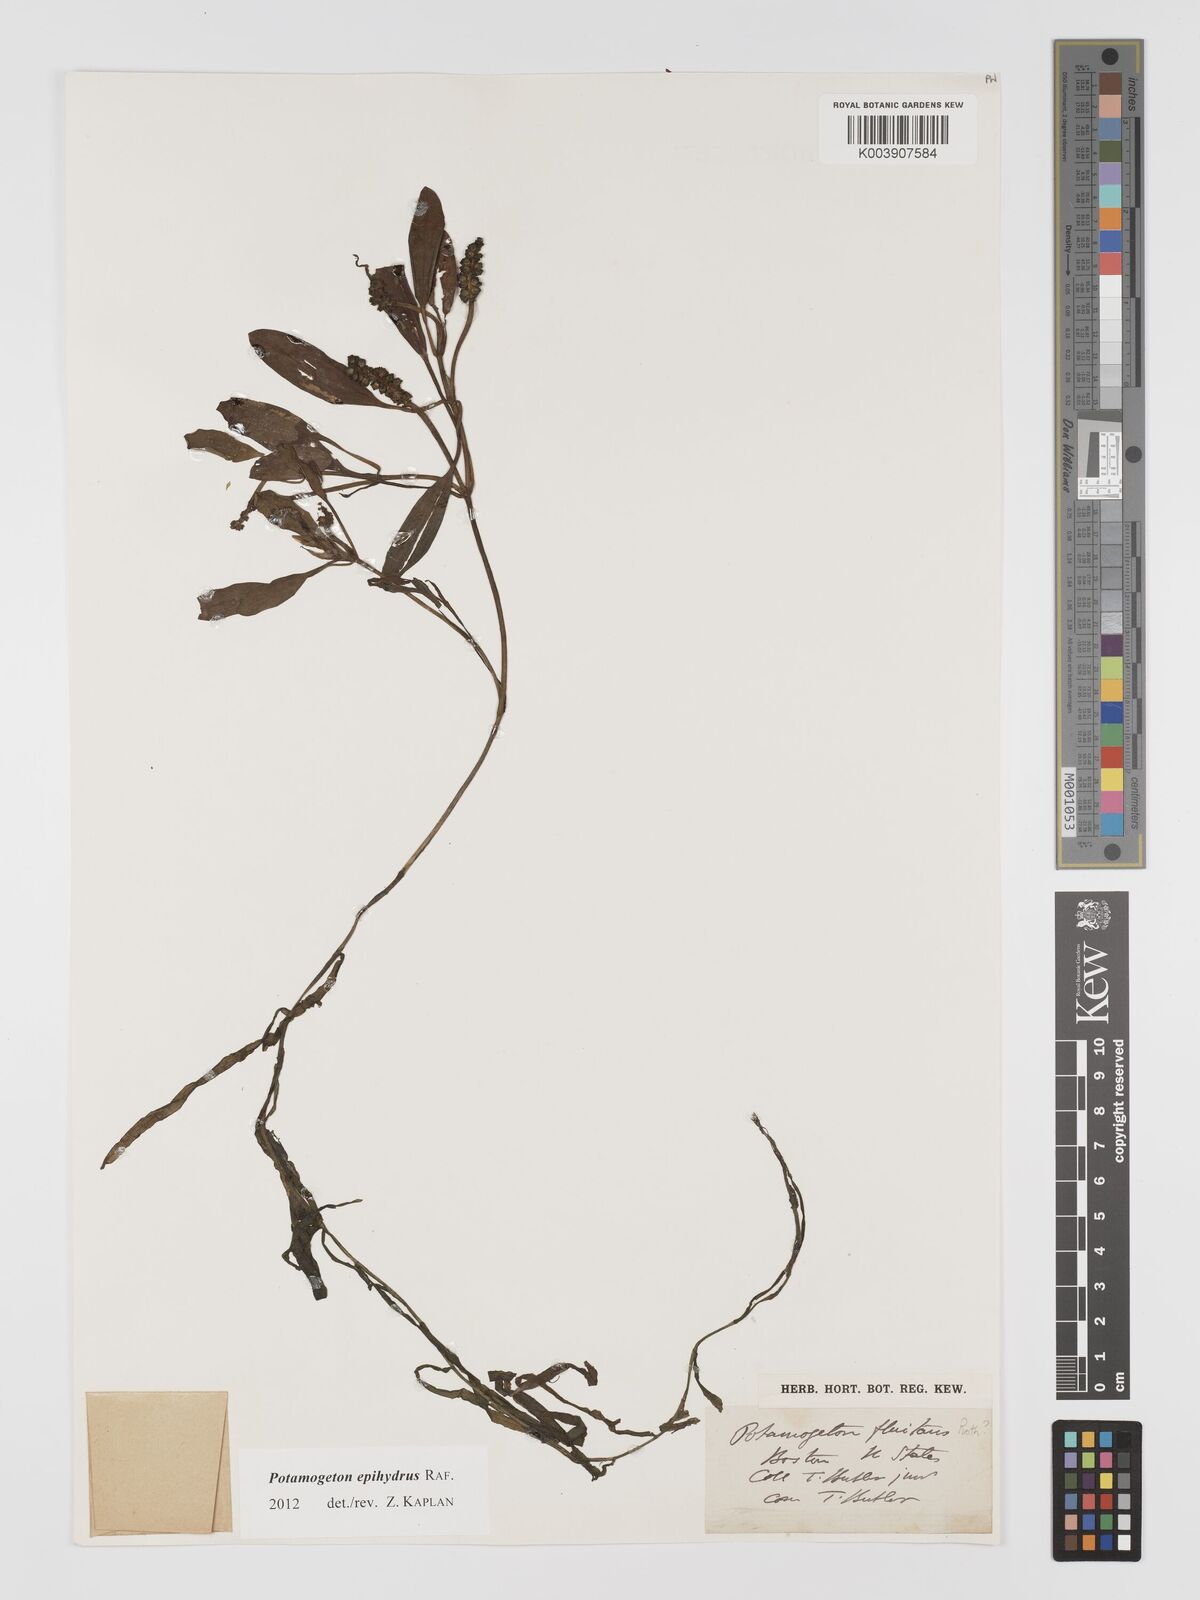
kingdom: Plantae
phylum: Tracheophyta
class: Liliopsida
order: Alismatales
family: Potamogetonaceae
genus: Potamogeton
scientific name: Potamogeton epihydrus
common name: American pondweed
